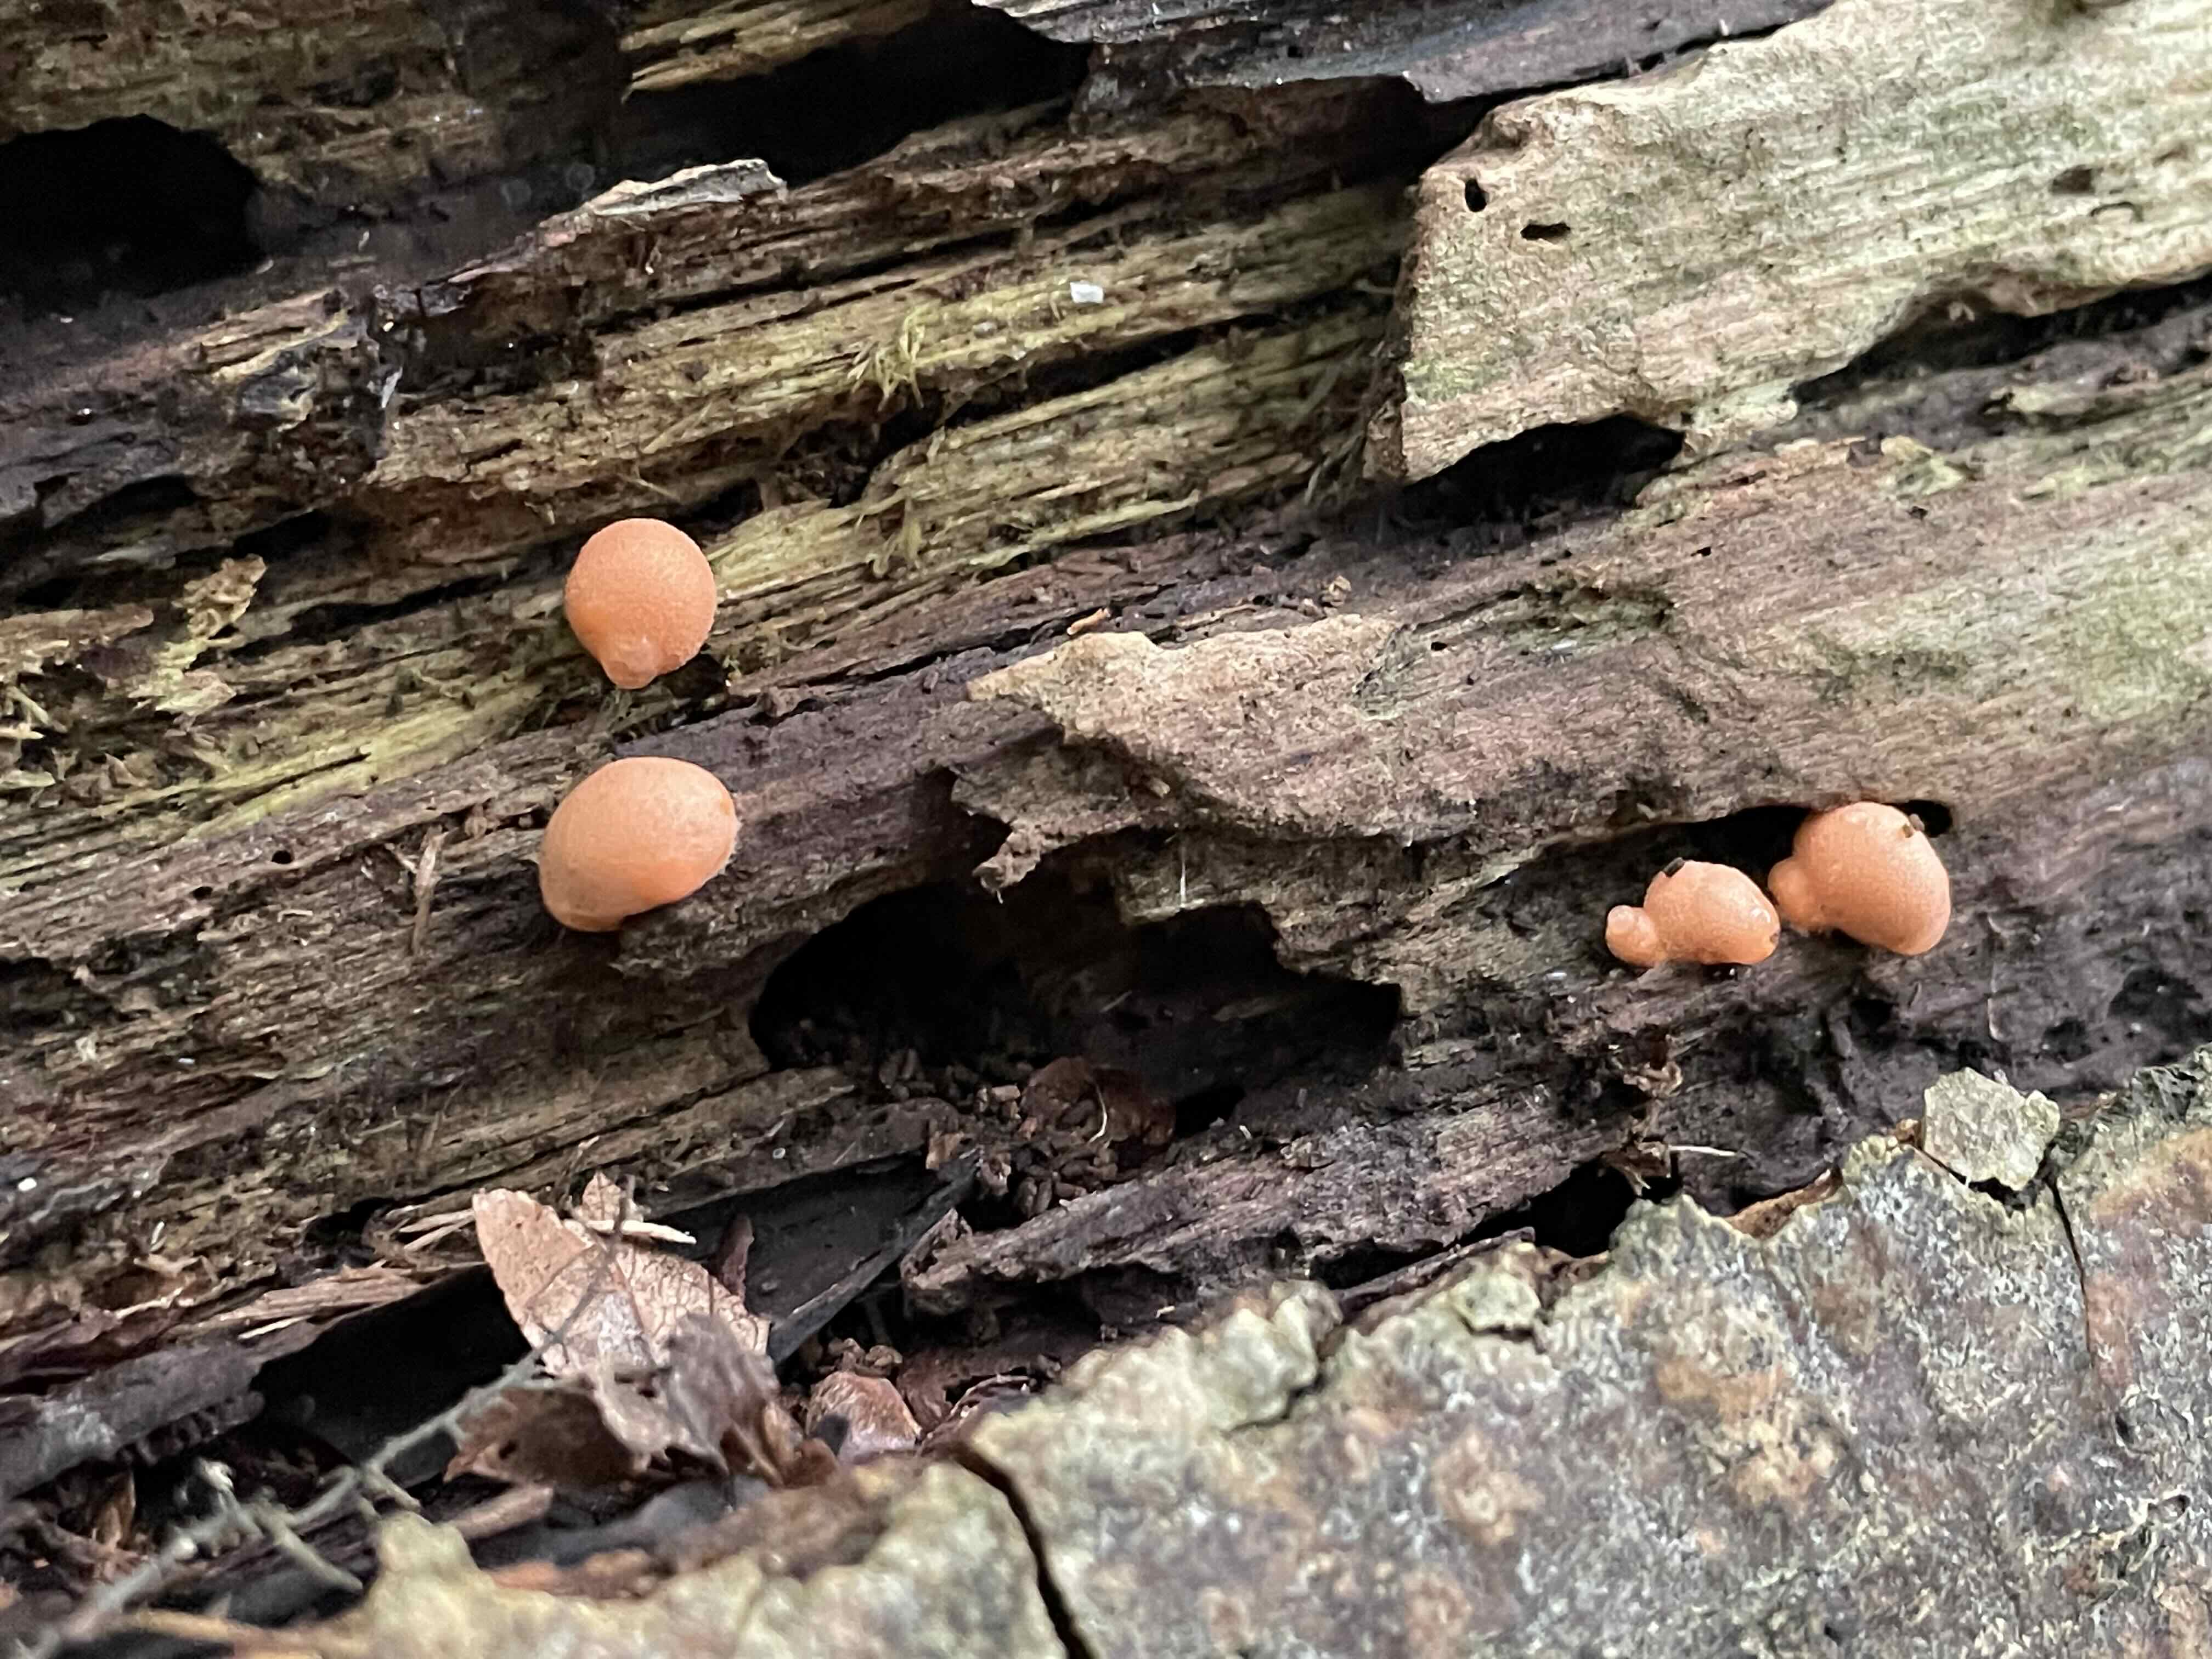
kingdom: Protozoa
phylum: Mycetozoa
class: Myxomycetes
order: Cribrariales
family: Tubiferaceae
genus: Lycogala
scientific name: Lycogala epidendrum
